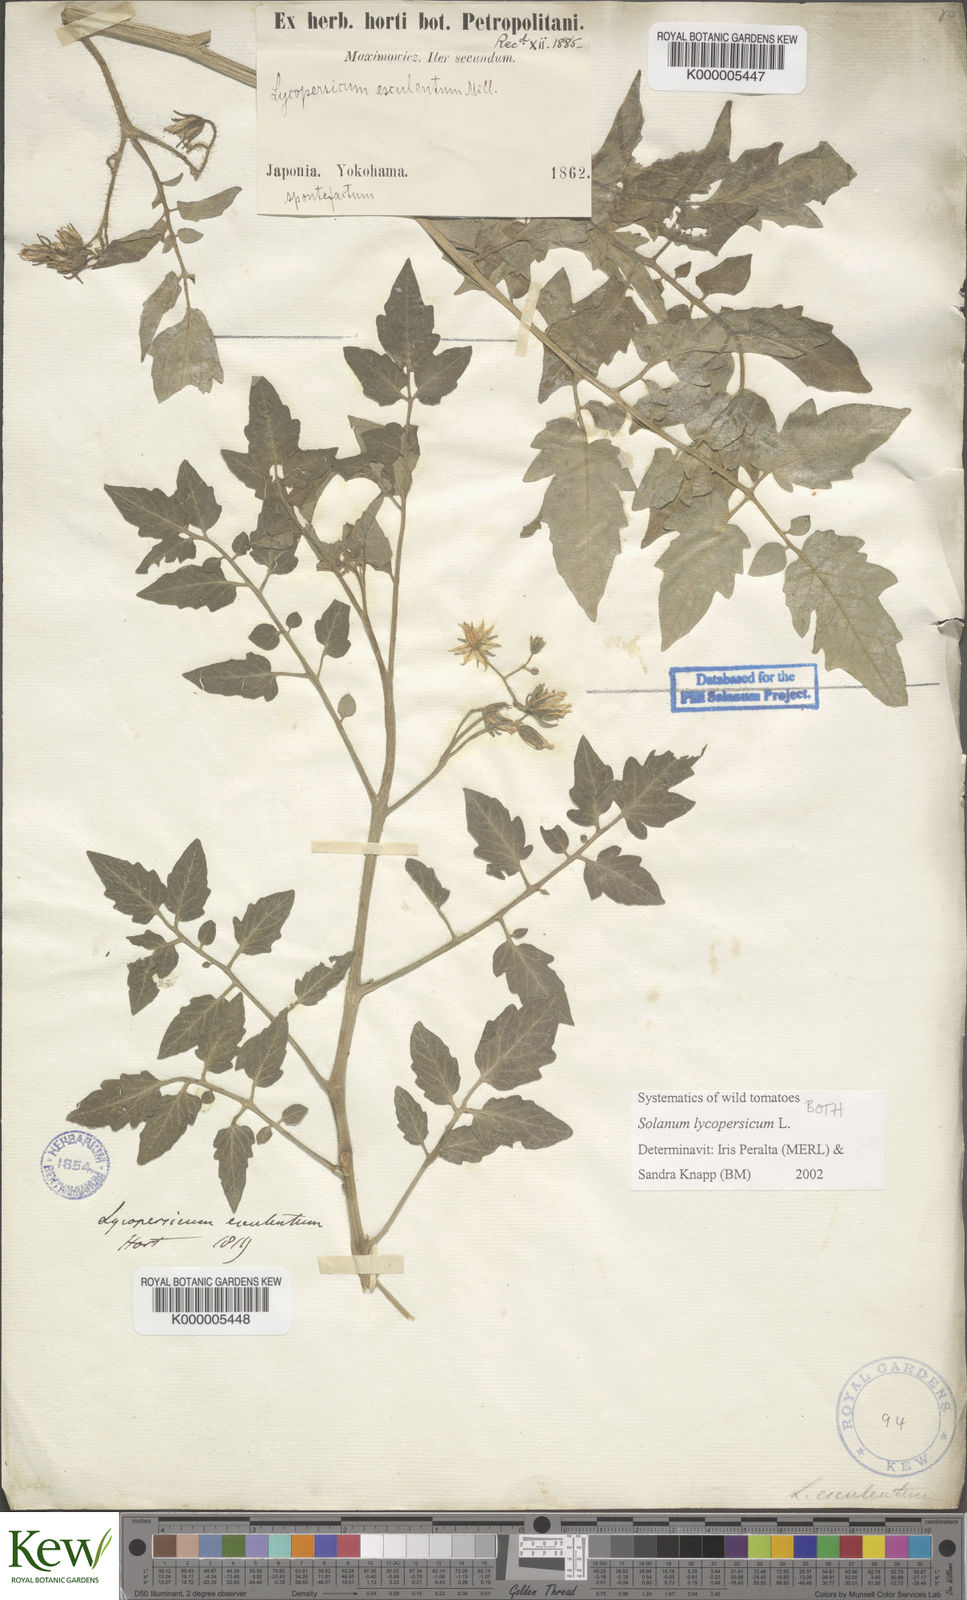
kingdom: Plantae
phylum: Tracheophyta
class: Magnoliopsida
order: Solanales
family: Solanaceae
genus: Solanum
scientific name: Solanum lycopersicum
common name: Garden tomato
